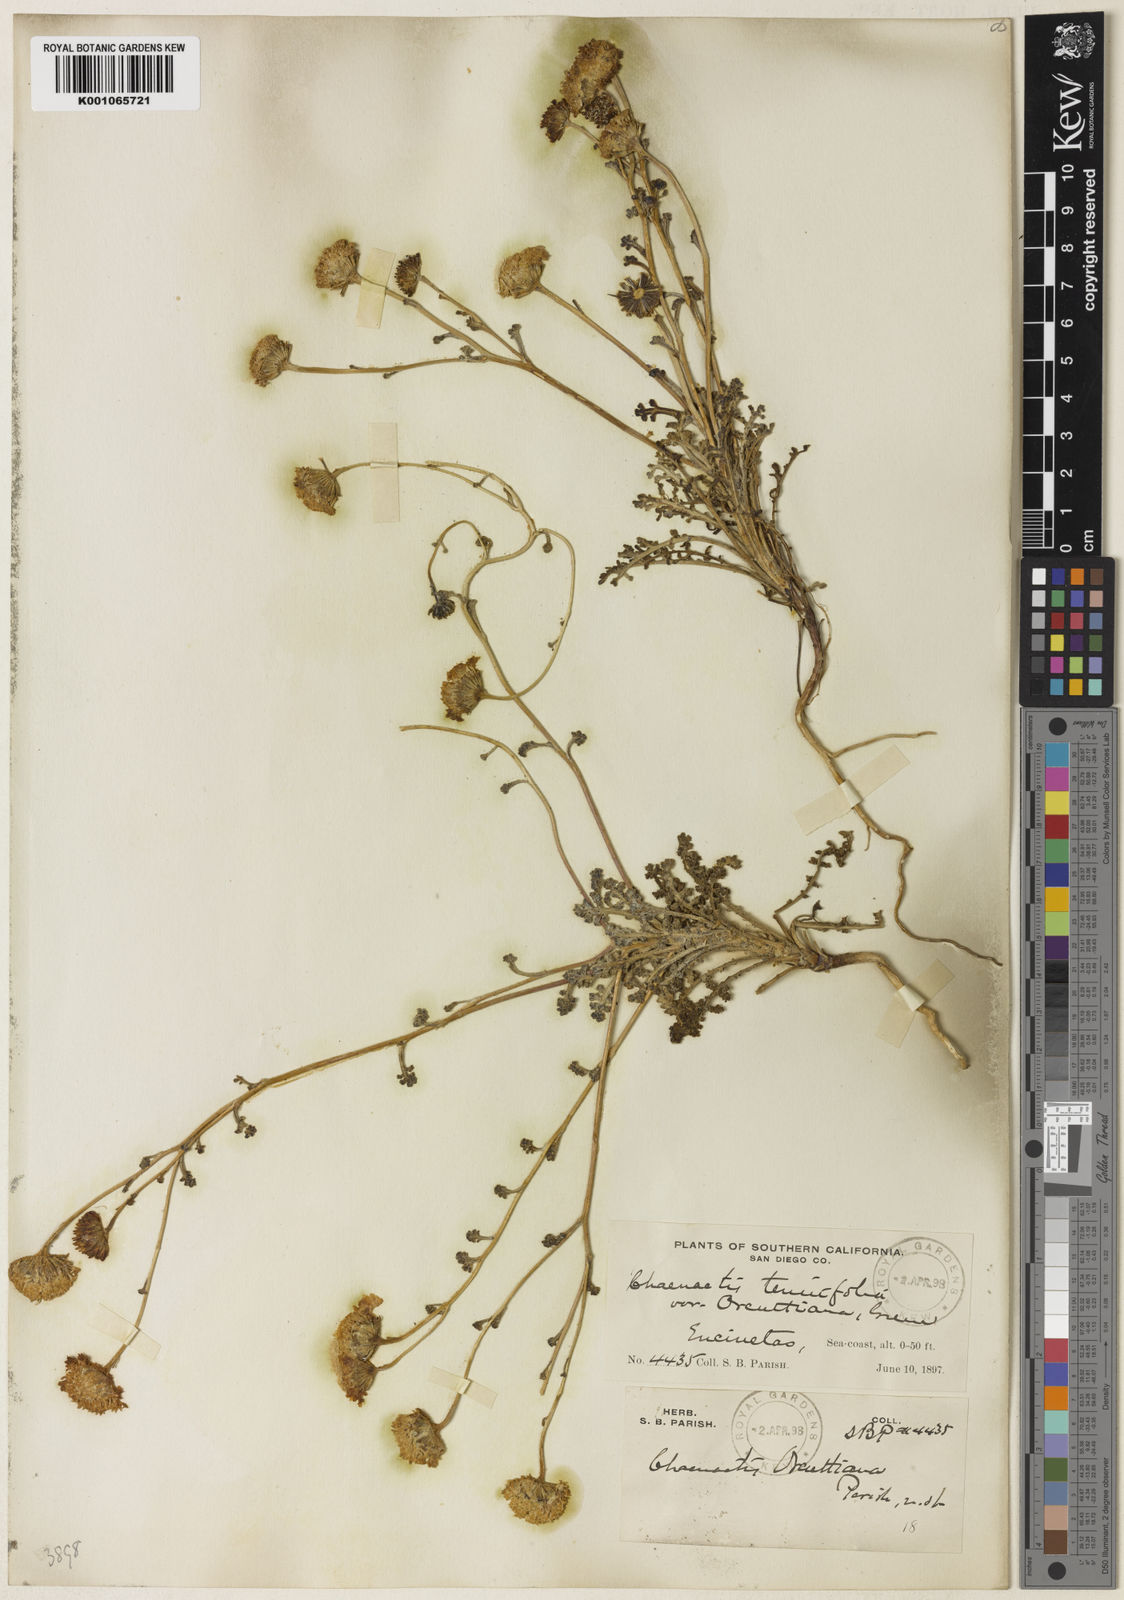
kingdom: Plantae
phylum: Tracheophyta
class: Magnoliopsida
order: Asterales
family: Asteraceae
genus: Chaenactis
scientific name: Chaenactis glabriuscula
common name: Yellow pincushion
